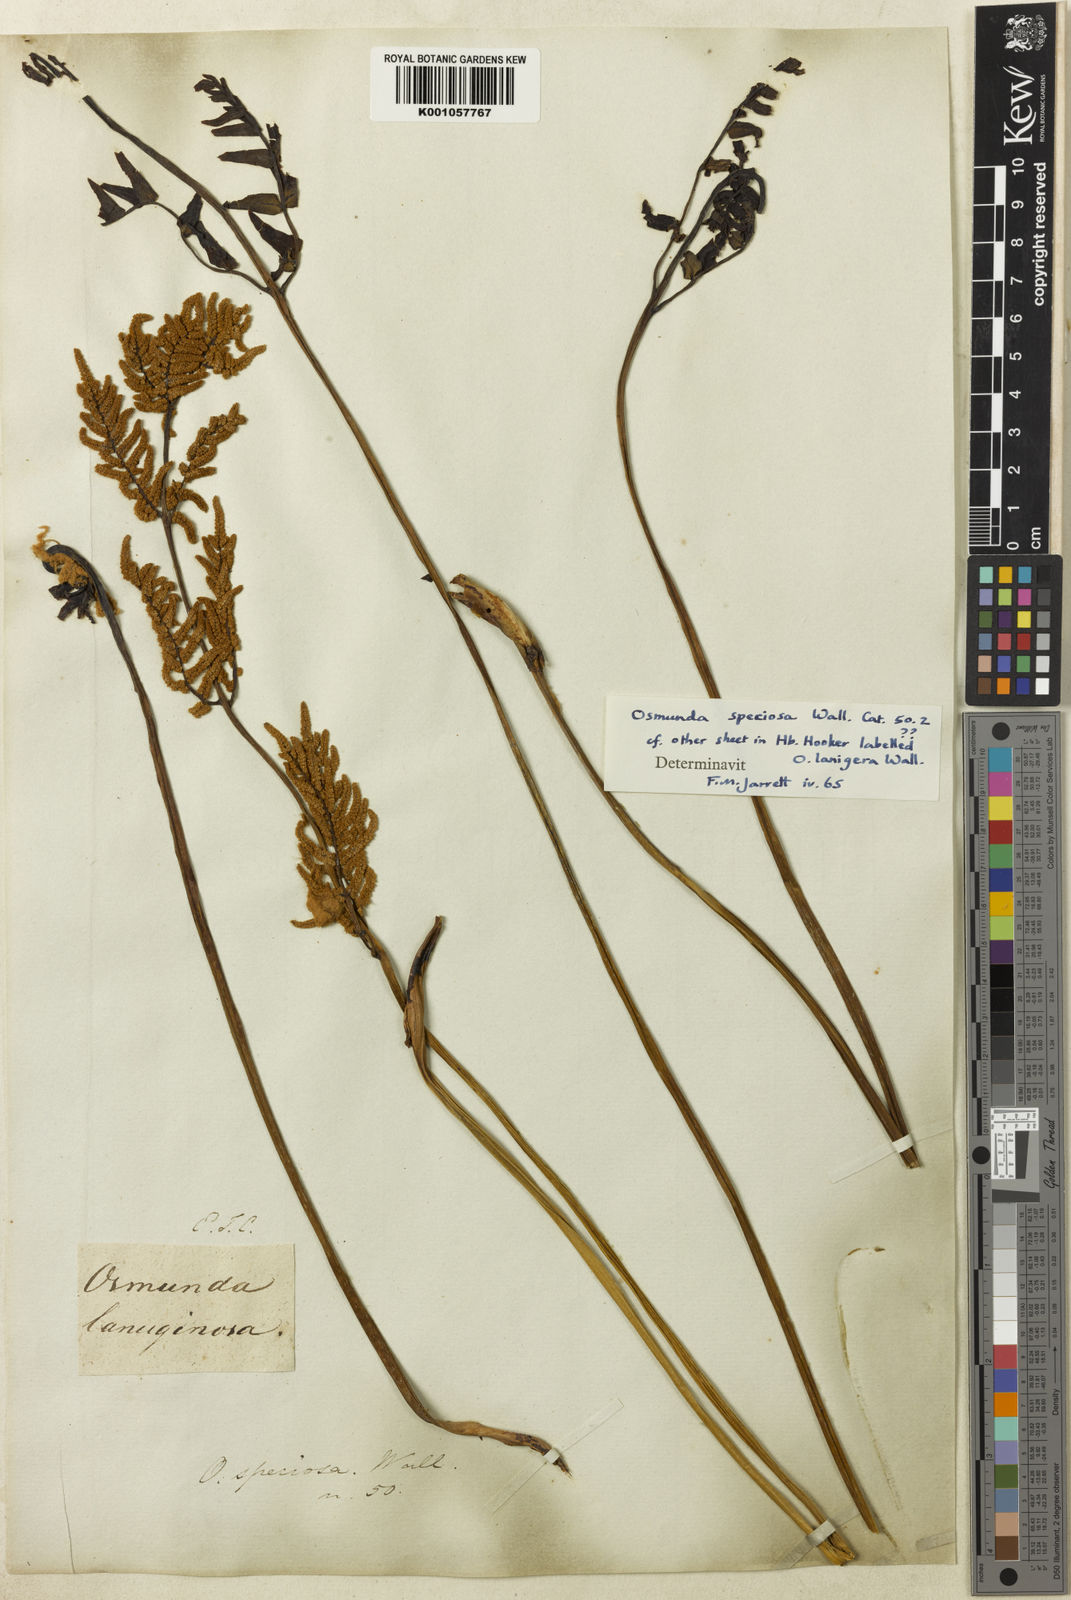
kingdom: Plantae
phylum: Tracheophyta
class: Polypodiopsida
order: Osmundales
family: Osmundaceae
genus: Osmunda
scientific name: Osmunda japonica
